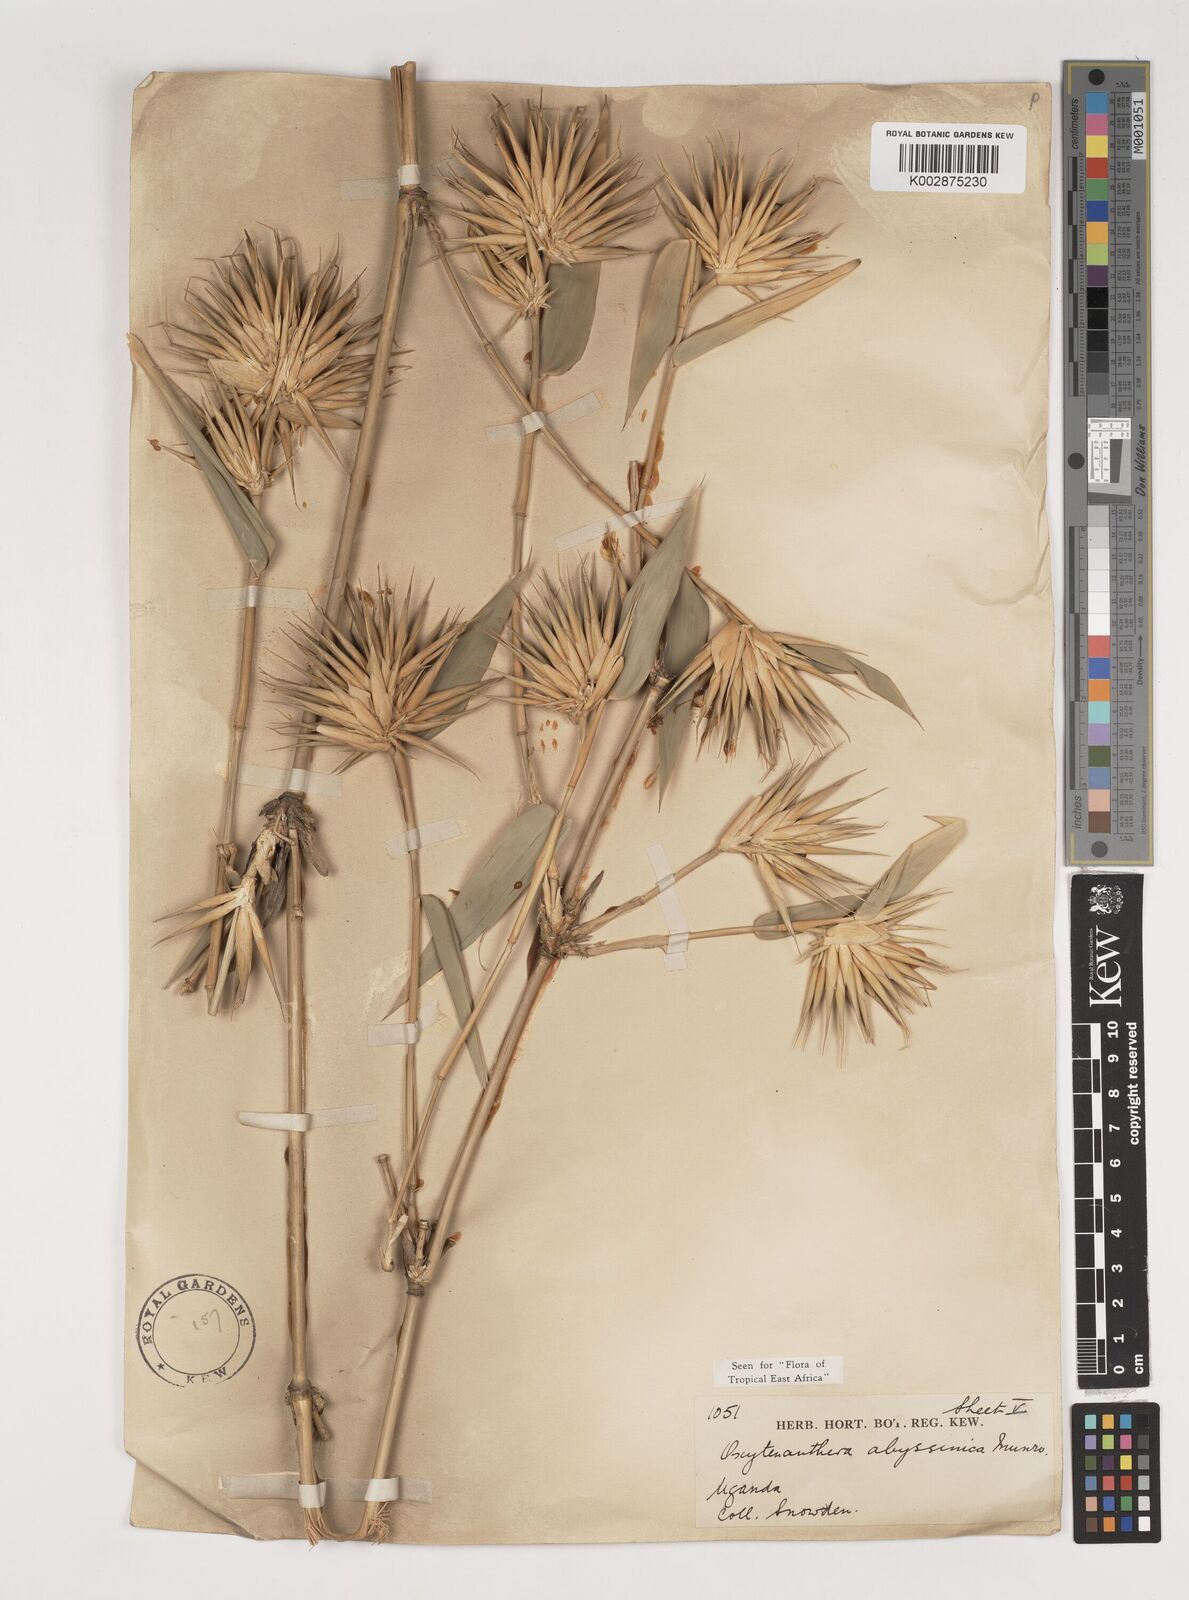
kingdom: Plantae
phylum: Tracheophyta
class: Liliopsida
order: Poales
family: Poaceae
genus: Oxytenanthera
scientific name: Oxytenanthera abyssinica
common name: Wine bamboo
